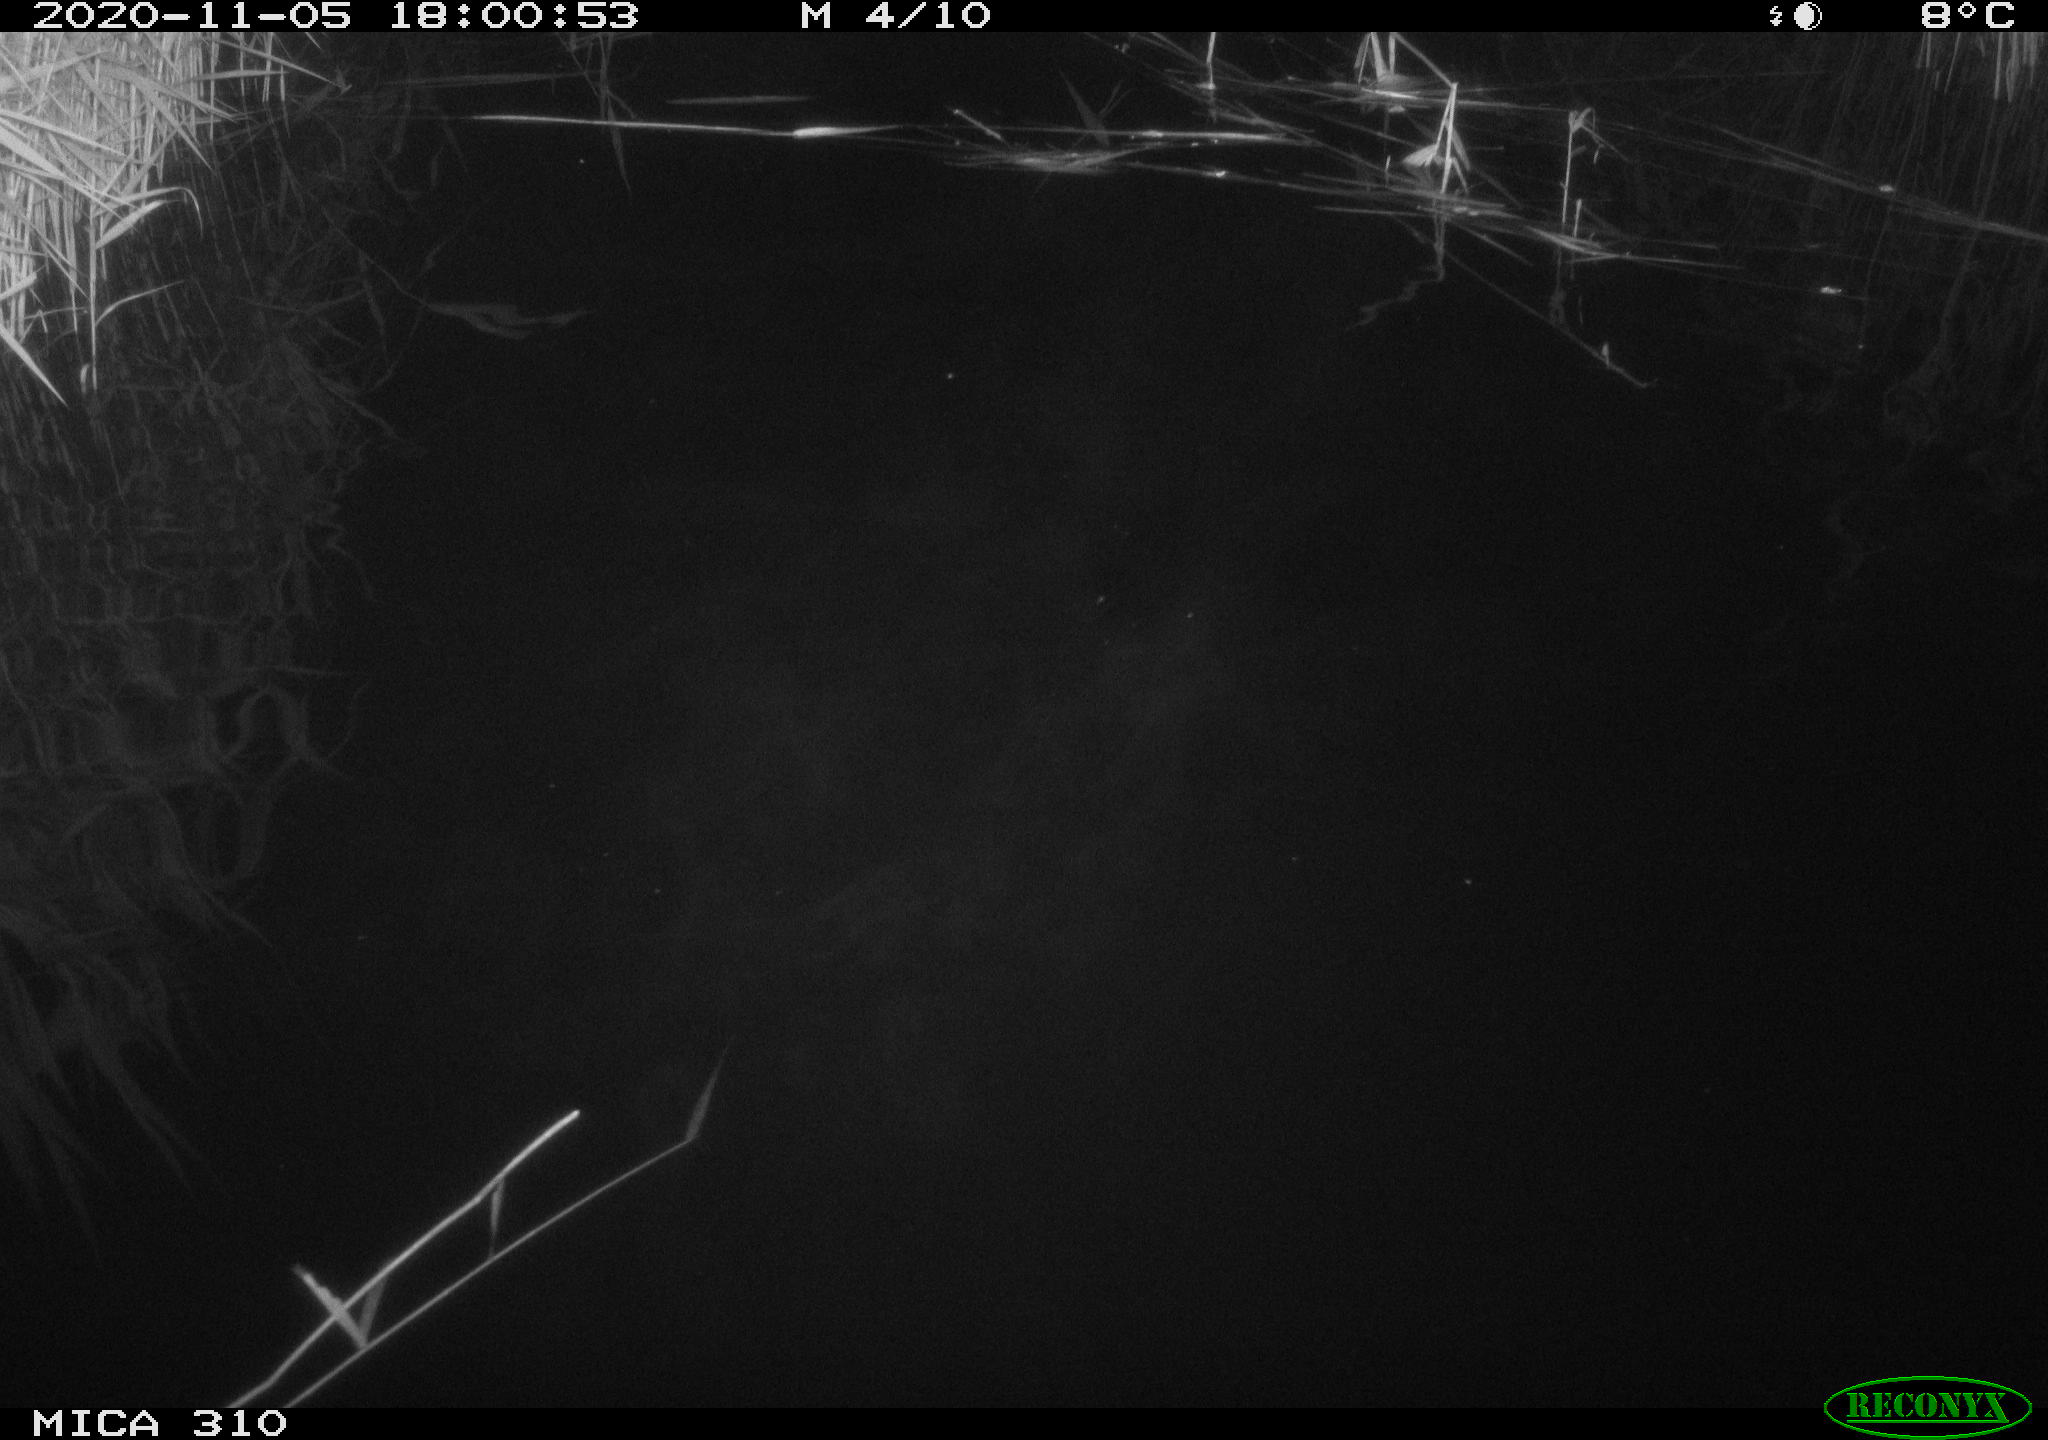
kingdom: Animalia
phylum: Chordata
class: Mammalia
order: Rodentia
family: Muridae
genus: Rattus
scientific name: Rattus norvegicus
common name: Brown rat
